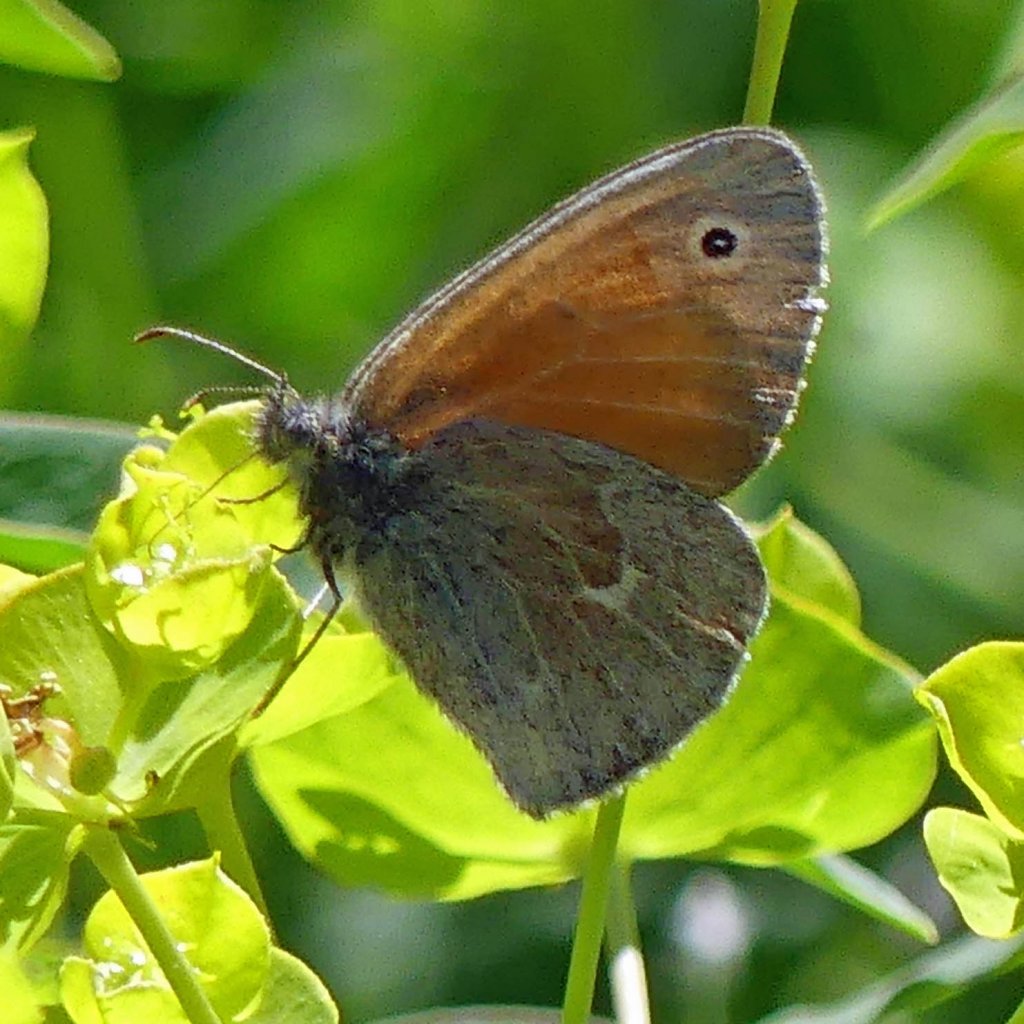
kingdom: Animalia
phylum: Arthropoda
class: Insecta
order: Lepidoptera
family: Nymphalidae
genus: Coenonympha
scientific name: Coenonympha tullia
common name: Large Heath
